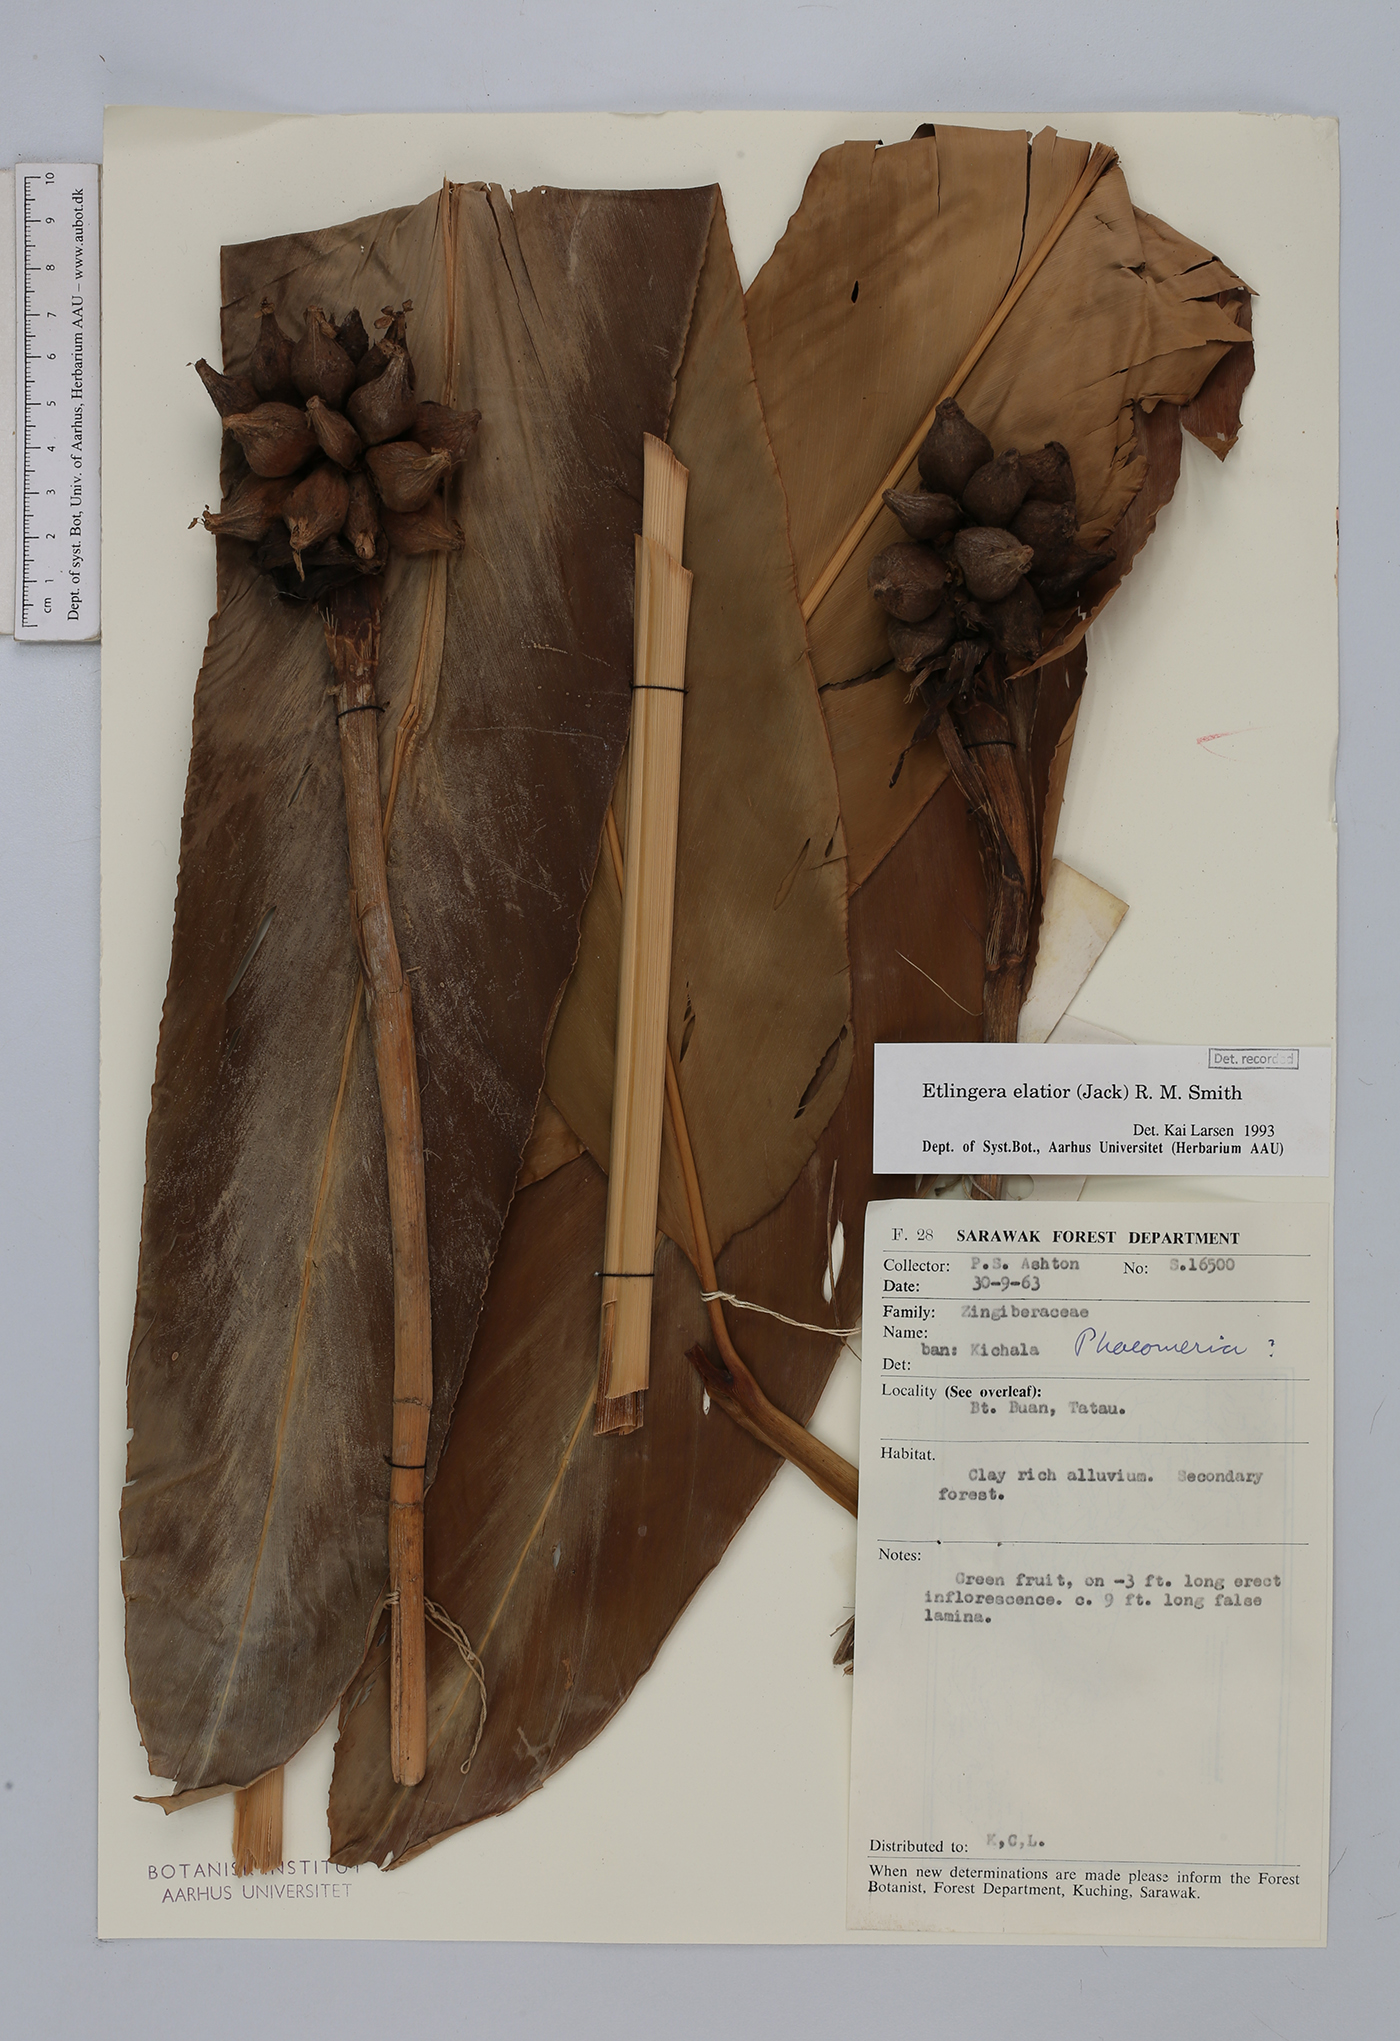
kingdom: Plantae
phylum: Tracheophyta
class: Liliopsida
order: Zingiberales
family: Zingiberaceae
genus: Etlingera
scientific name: Etlingera elatior
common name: Philippine waxflower
